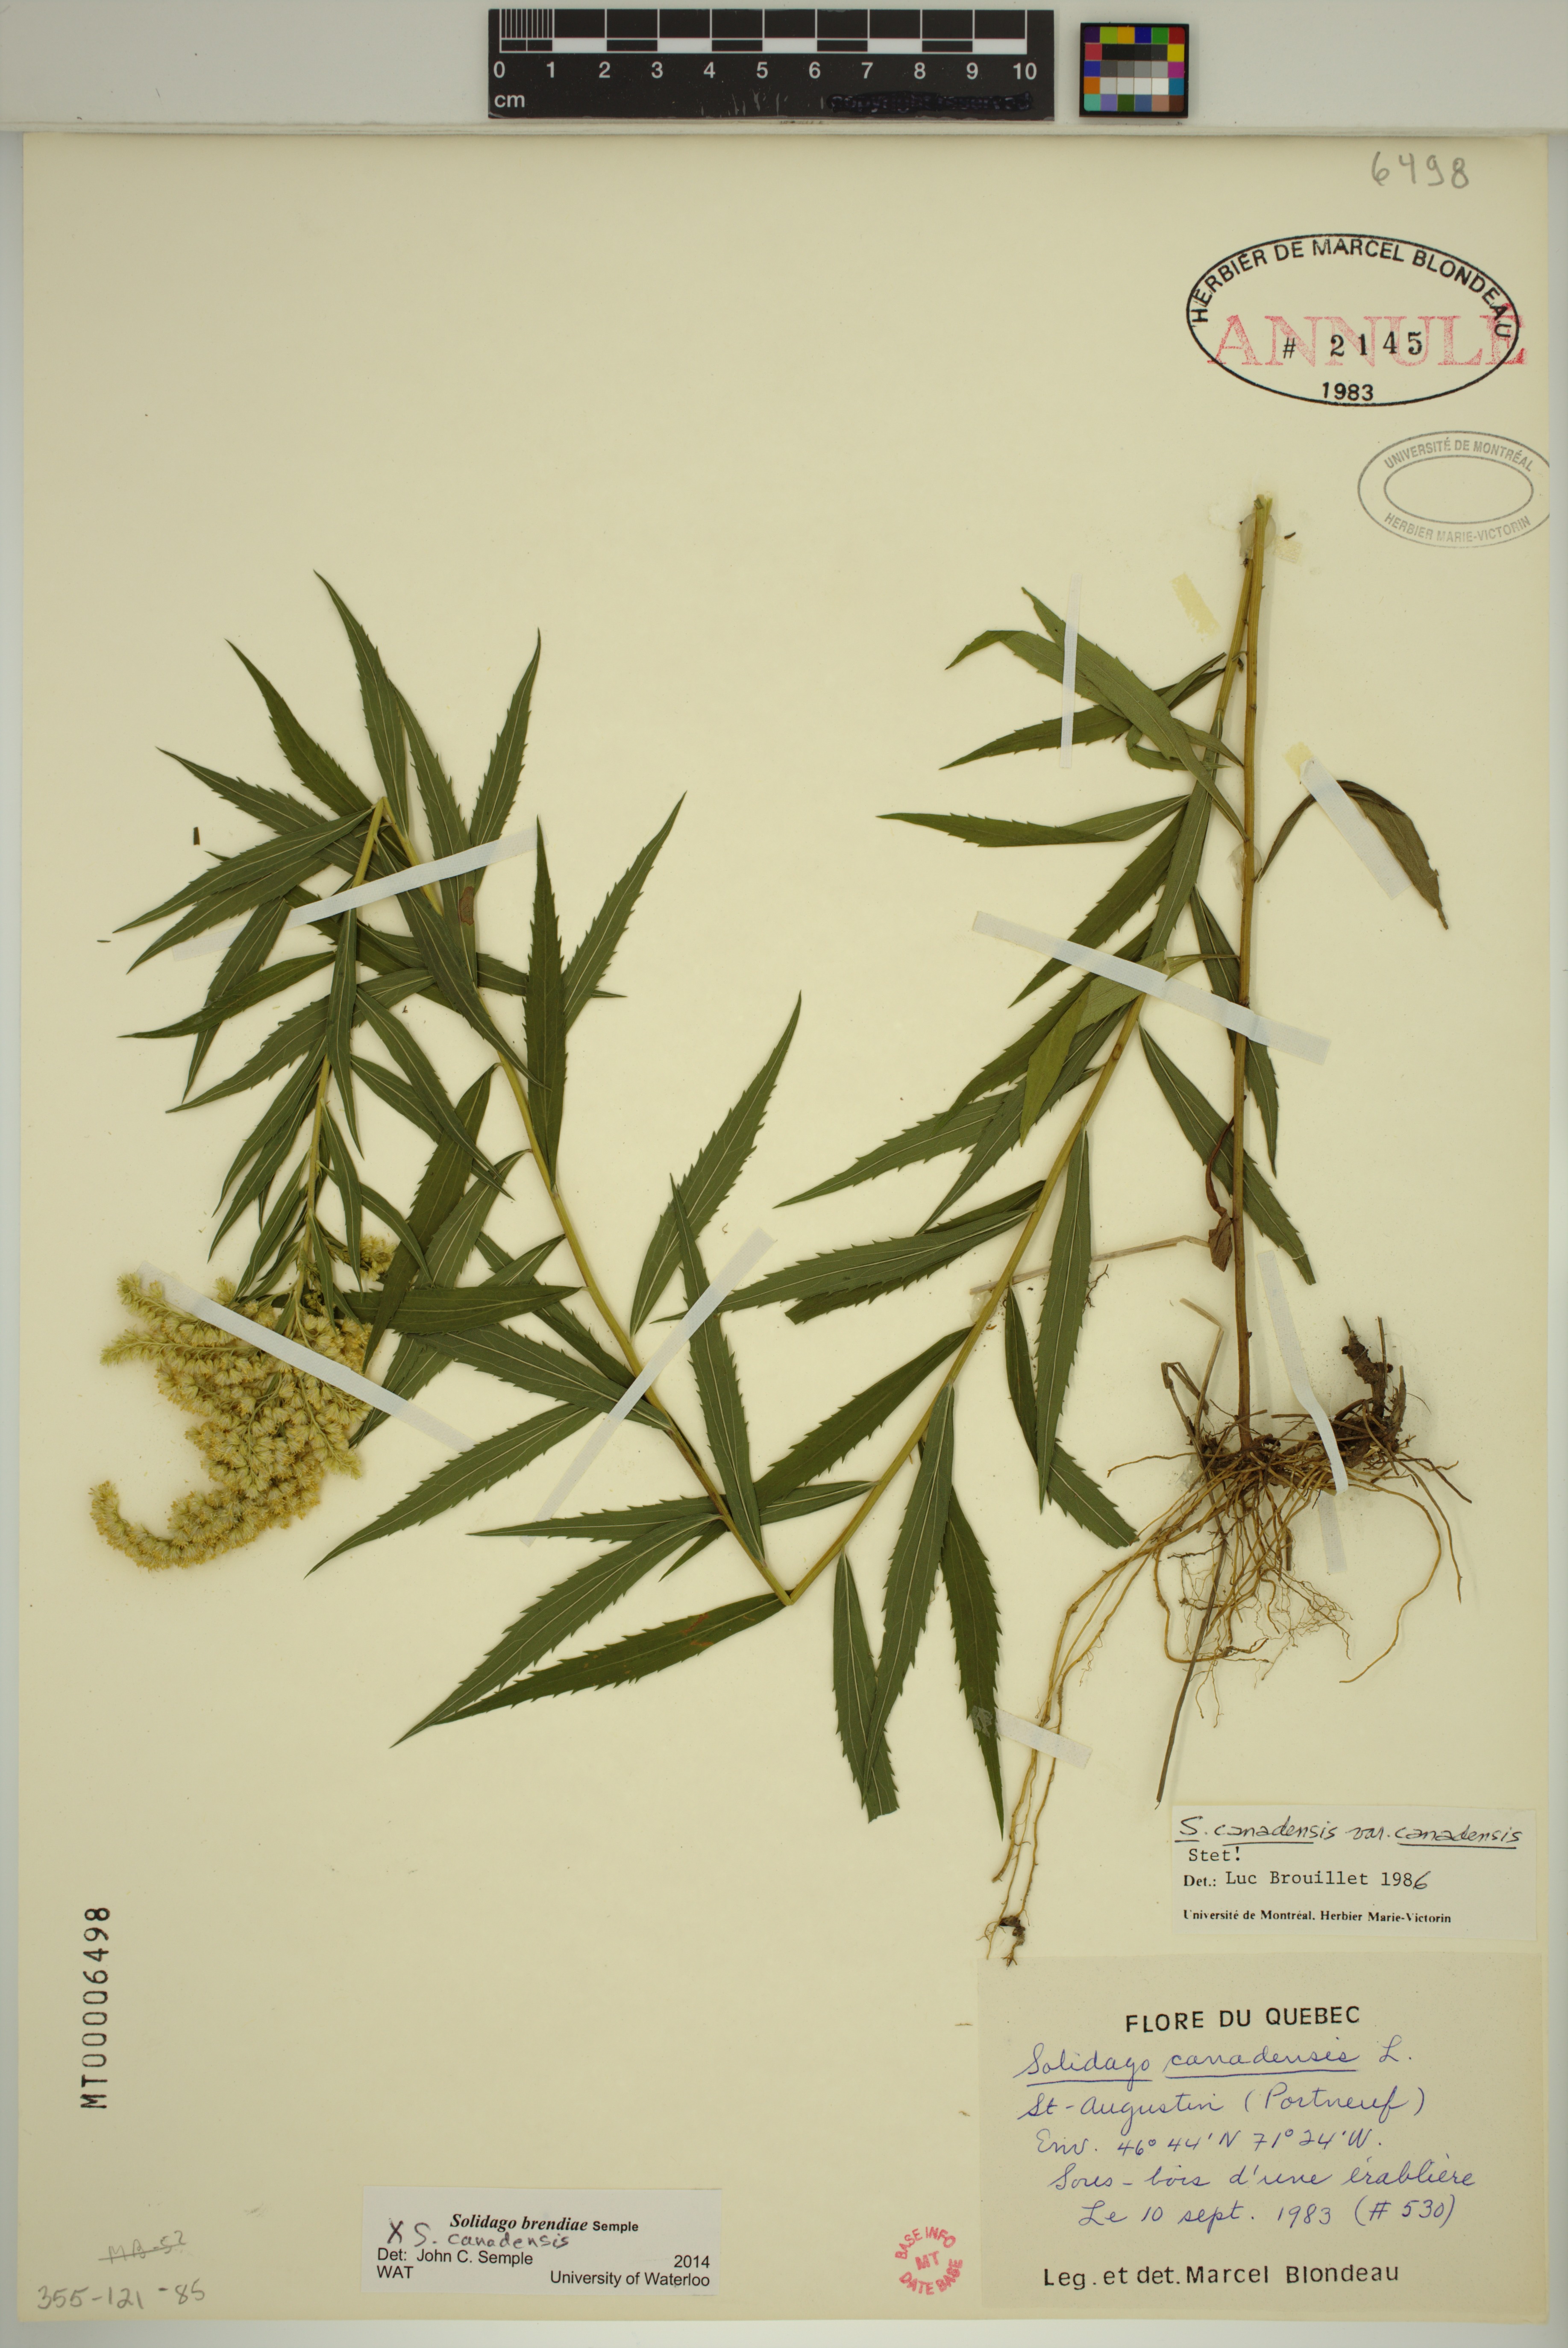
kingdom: Plantae
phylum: Tracheophyta
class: Magnoliopsida
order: Asterales
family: Asteraceae
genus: Solidago
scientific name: Solidago brendae
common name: Brenda's goldenrod
